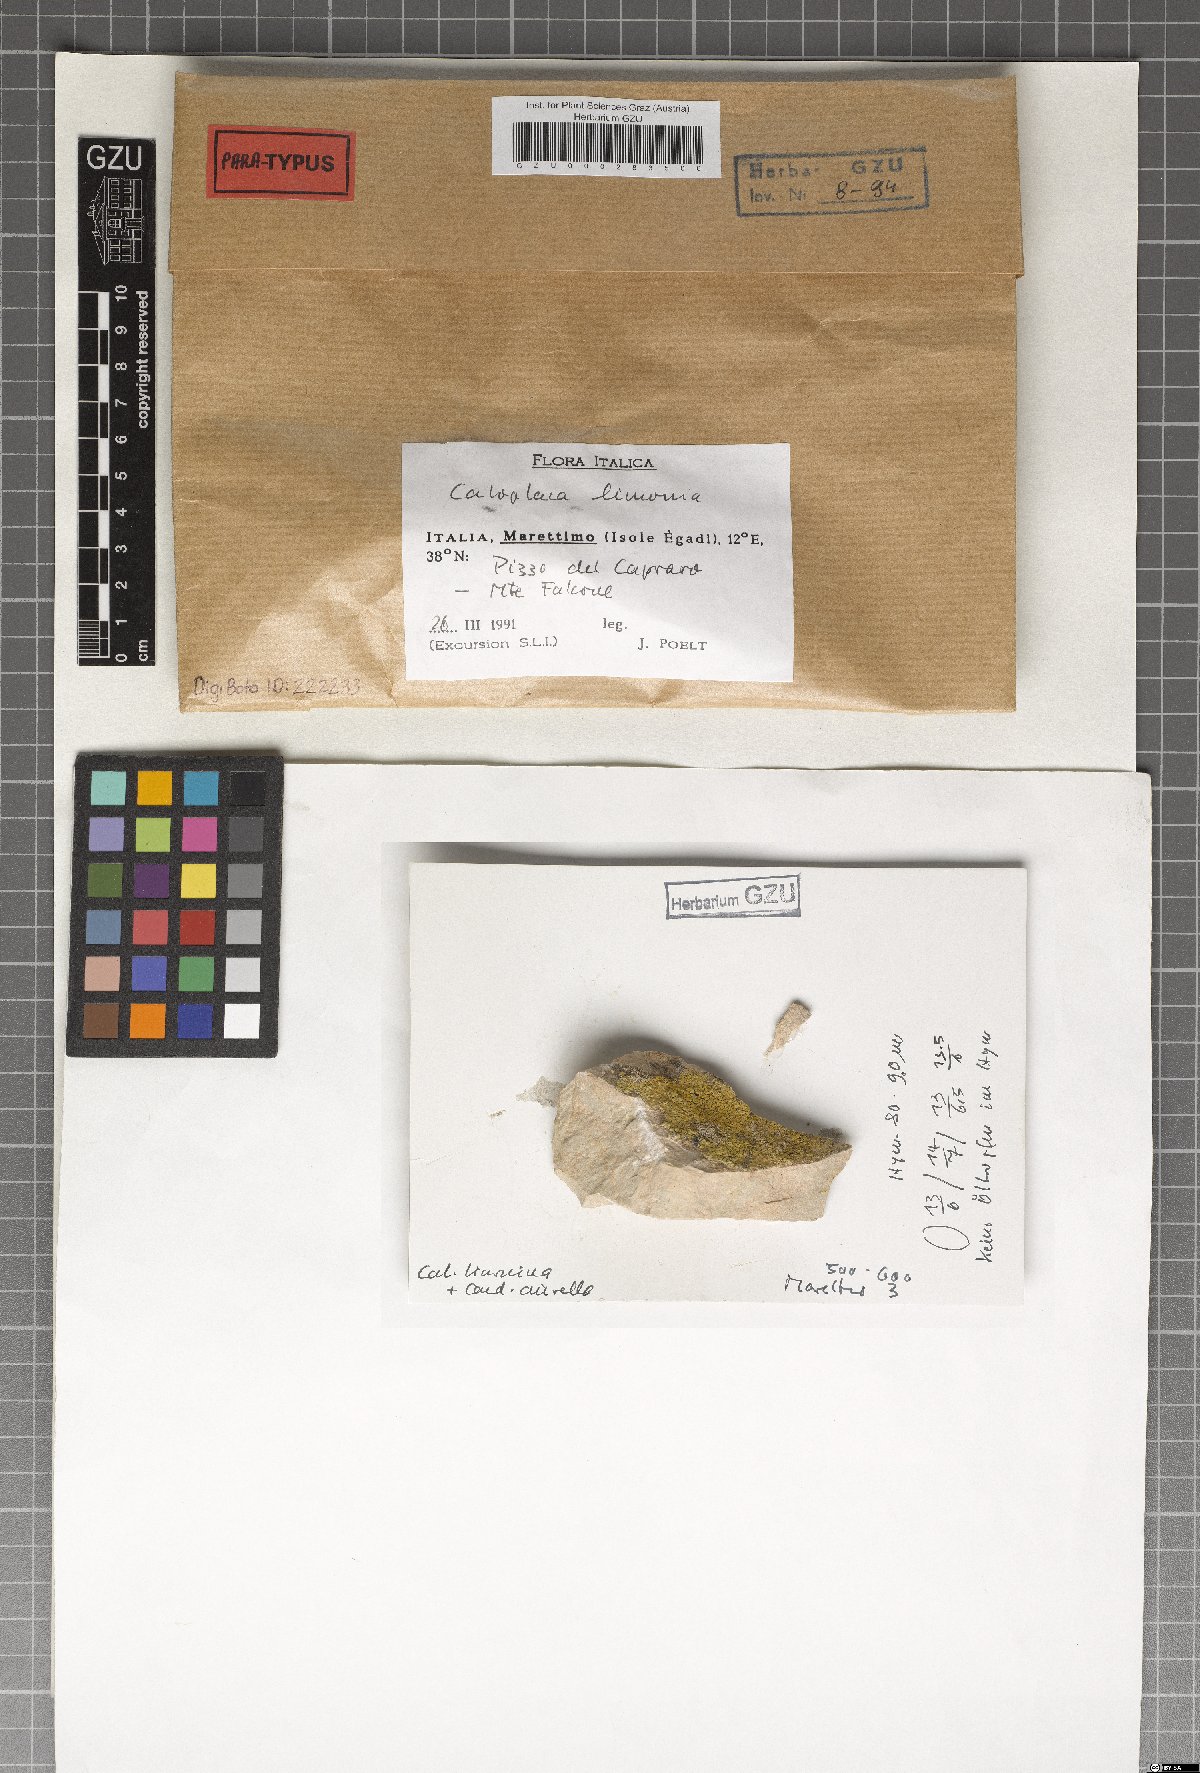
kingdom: Fungi
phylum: Ascomycota
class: Lecanoromycetes
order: Teloschistales
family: Teloschistaceae
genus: Flavoplaca
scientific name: Flavoplaca limonia
